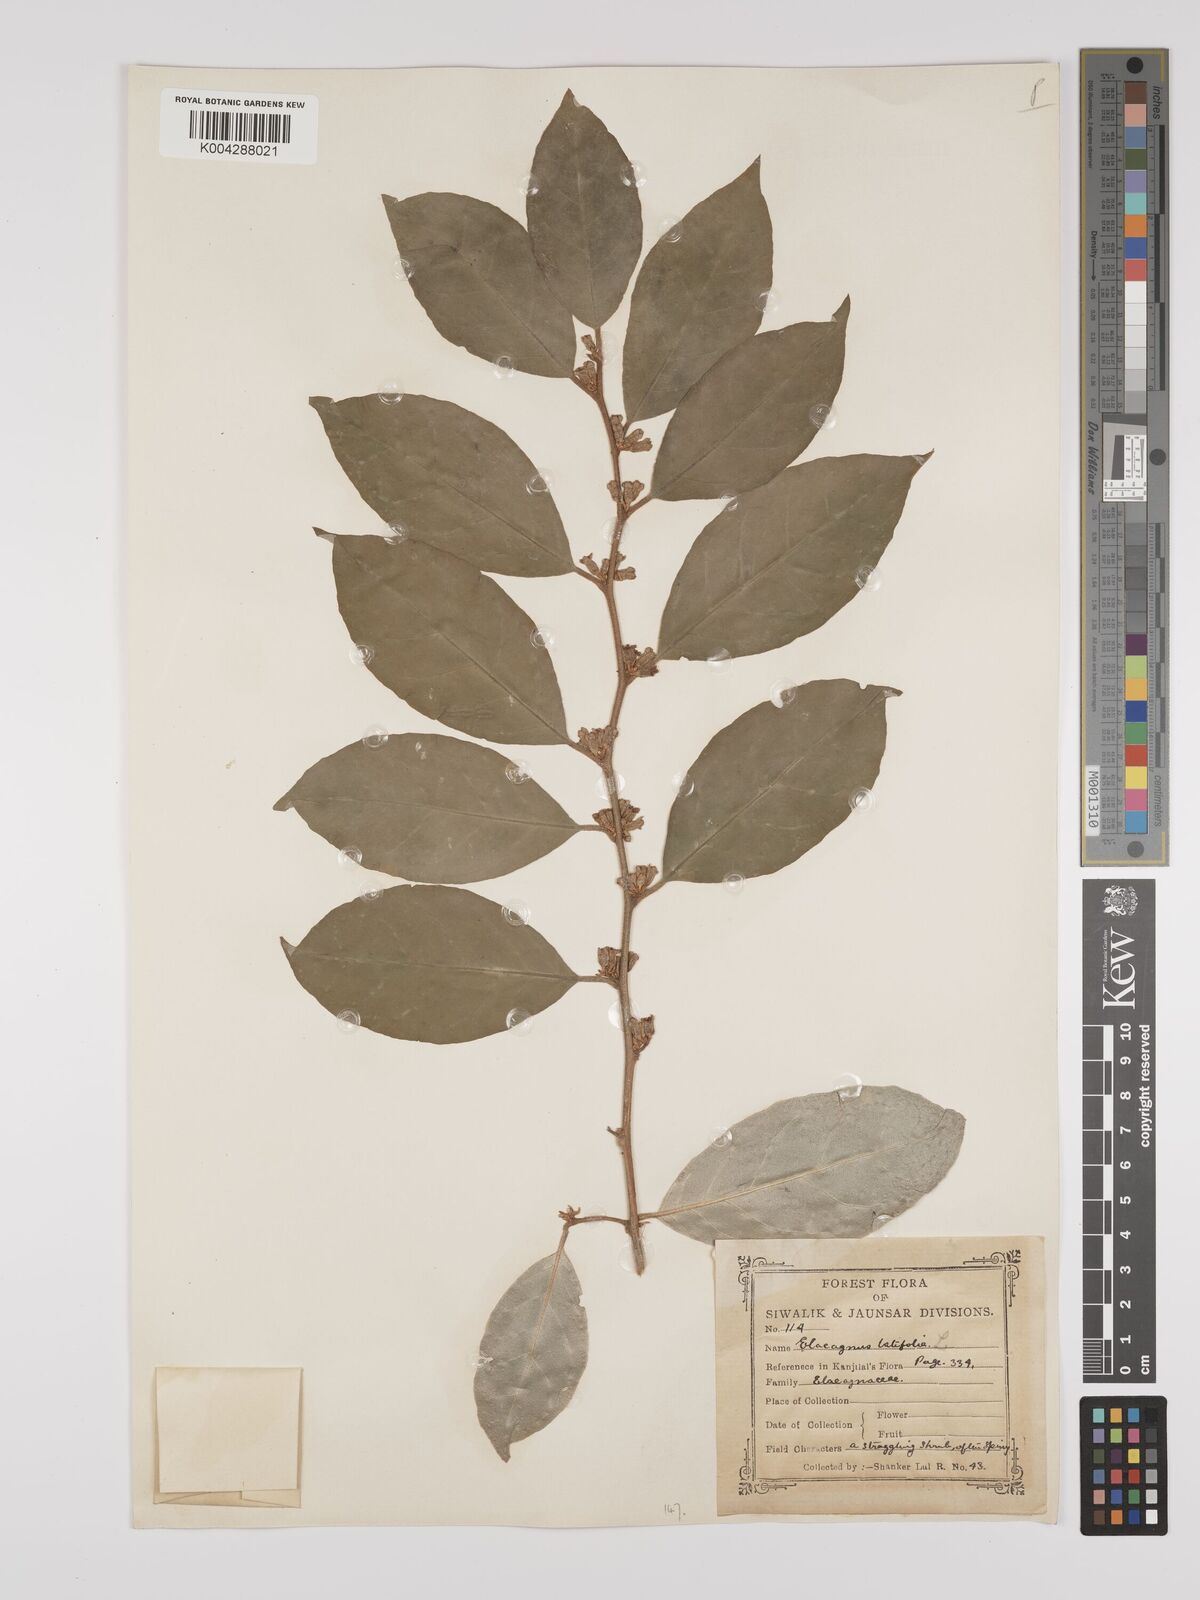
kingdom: Plantae
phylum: Tracheophyta
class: Magnoliopsida
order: Rosales
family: Elaeagnaceae
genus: Elaeagnus
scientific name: Elaeagnus latifolia
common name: Oleaster
